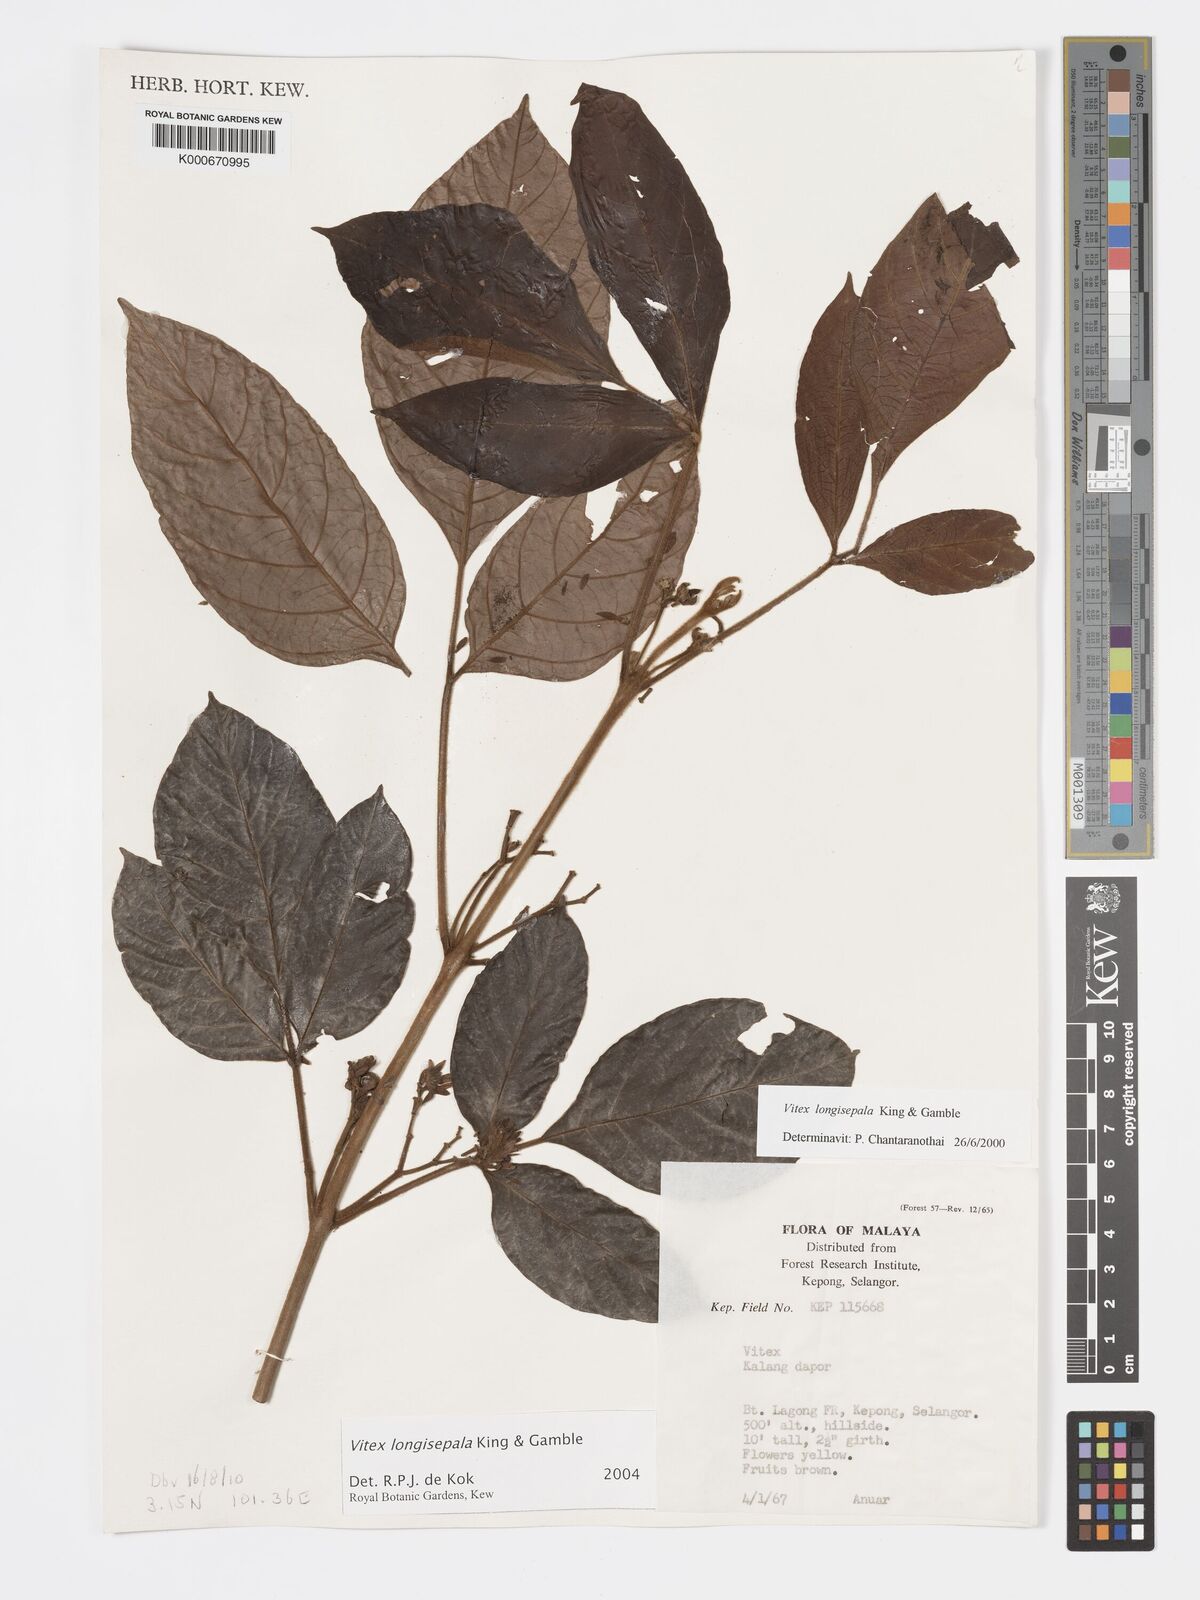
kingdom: Plantae
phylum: Tracheophyta
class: Magnoliopsida
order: Lamiales
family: Lamiaceae
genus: Vitex
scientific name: Vitex longisepala
